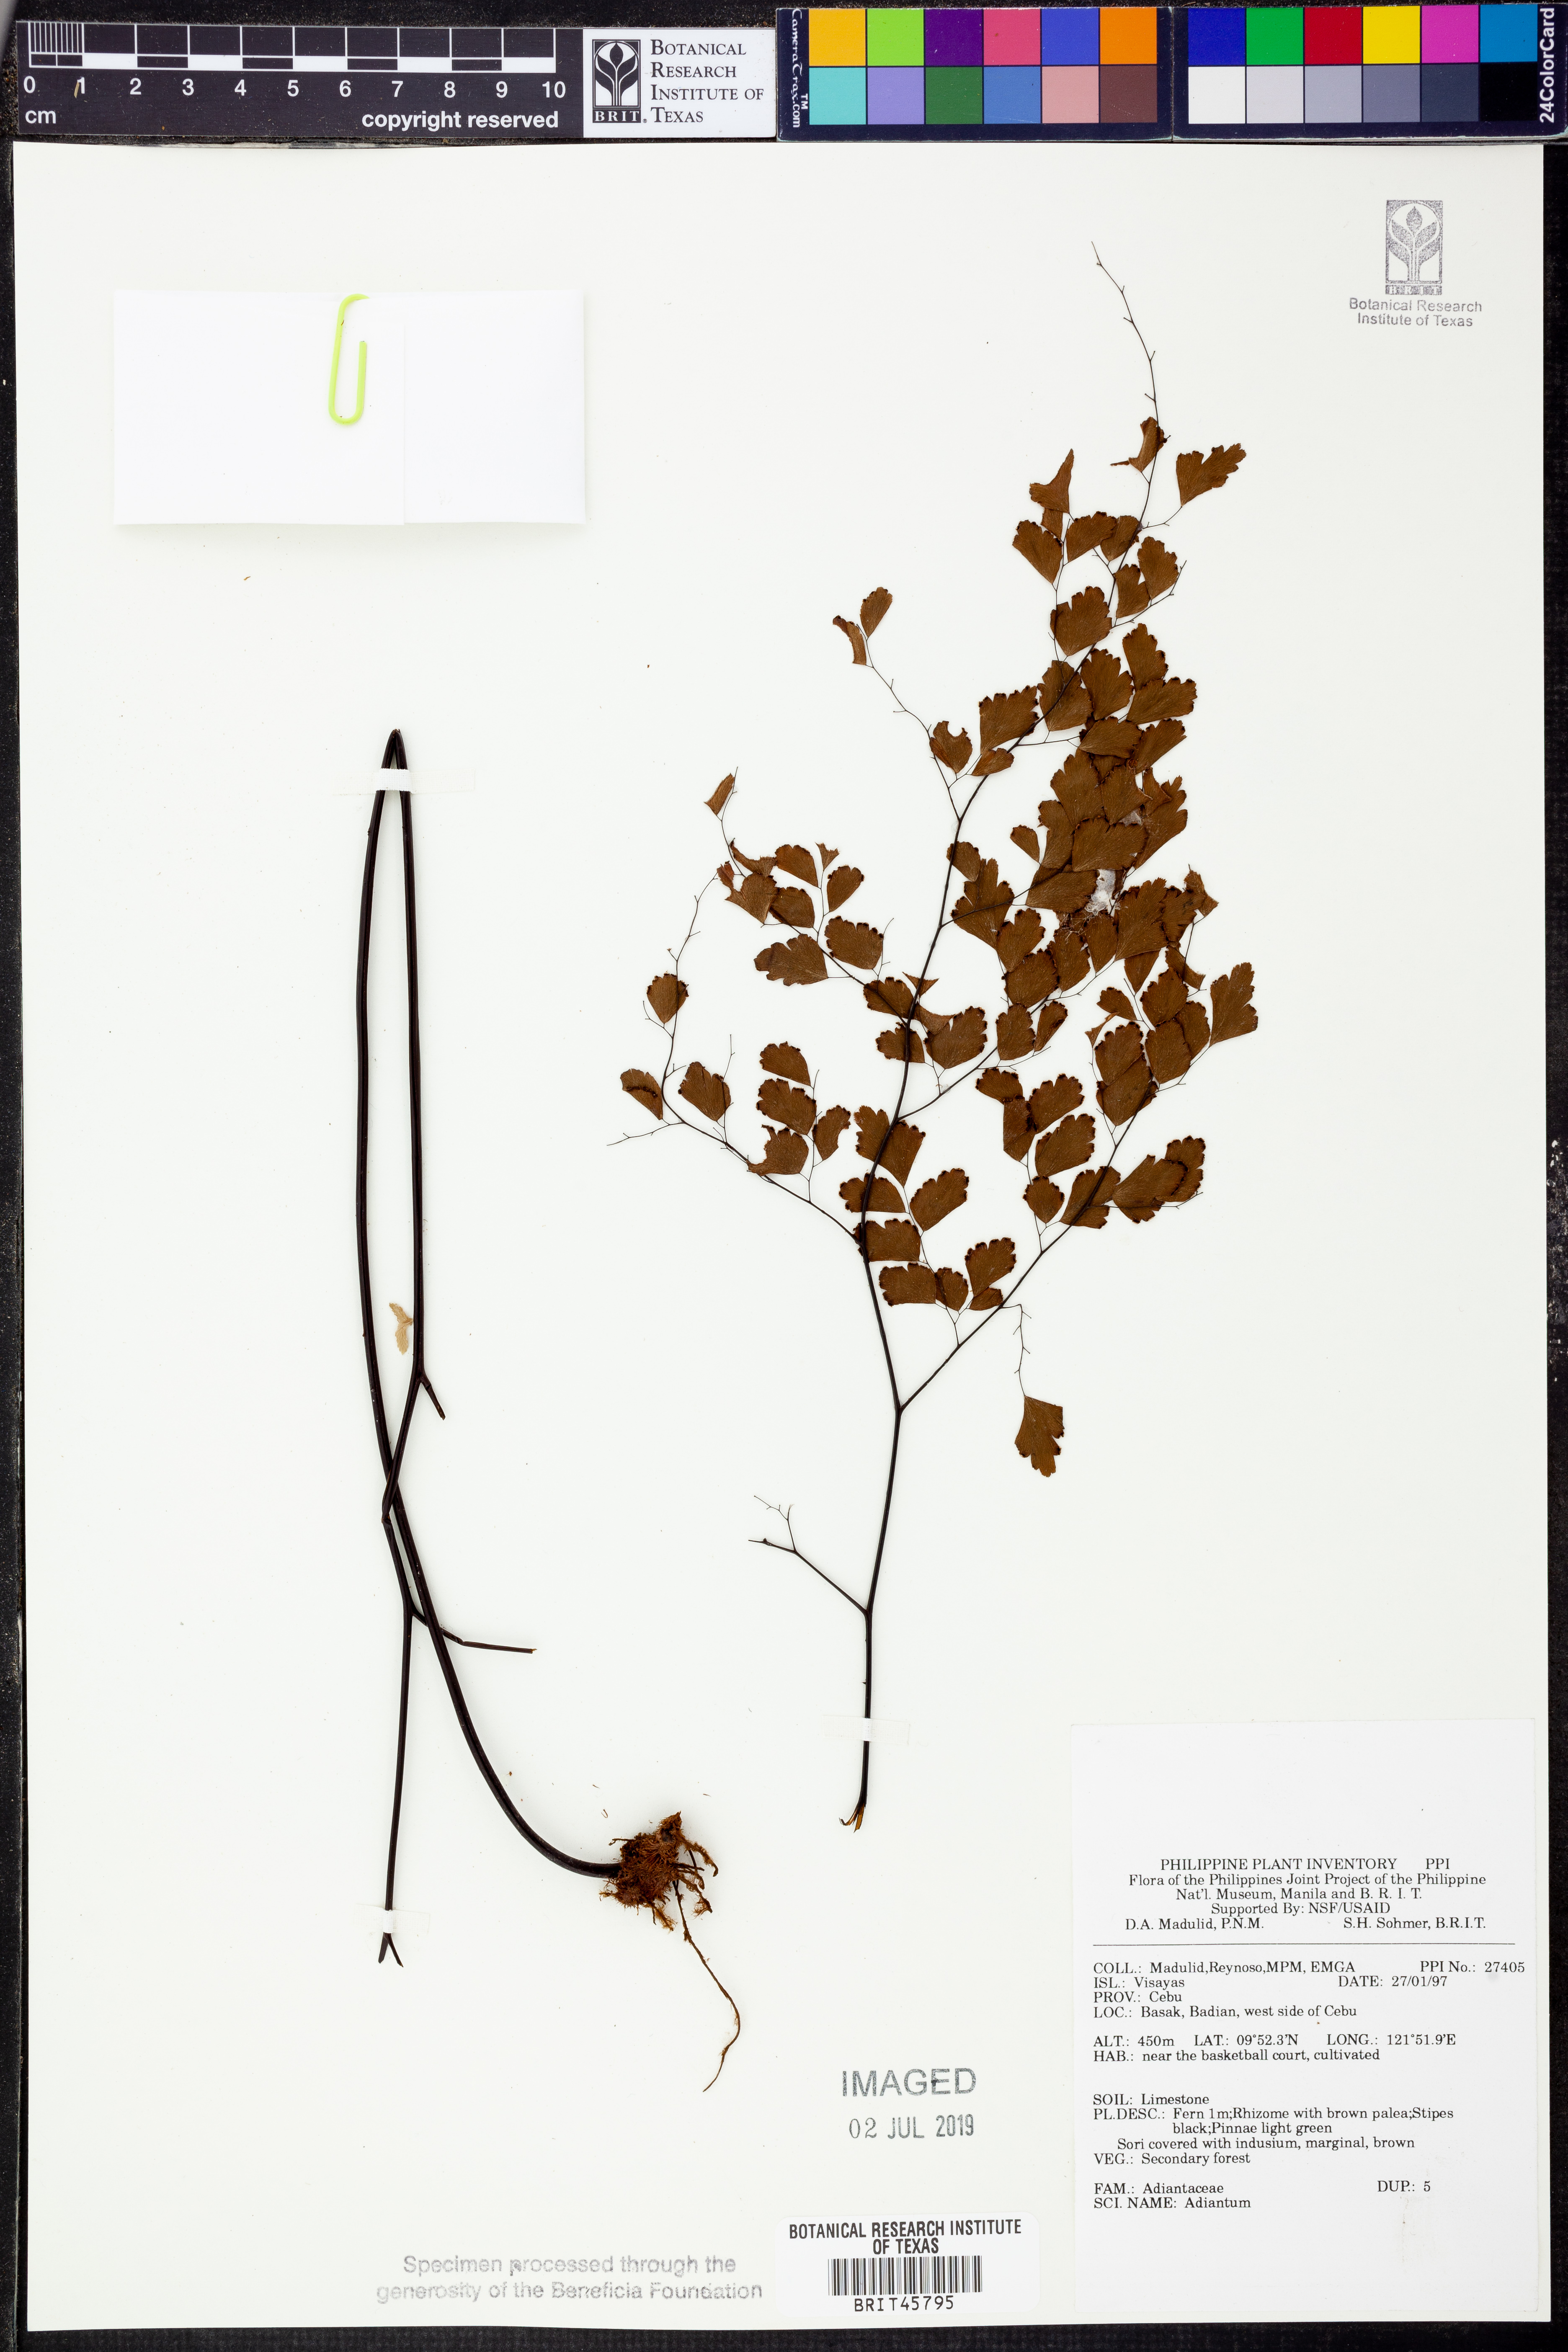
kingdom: Plantae
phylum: Tracheophyta
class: Polypodiopsida
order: Polypodiales
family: Pteridaceae
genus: Adiantum
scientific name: Adiantum
